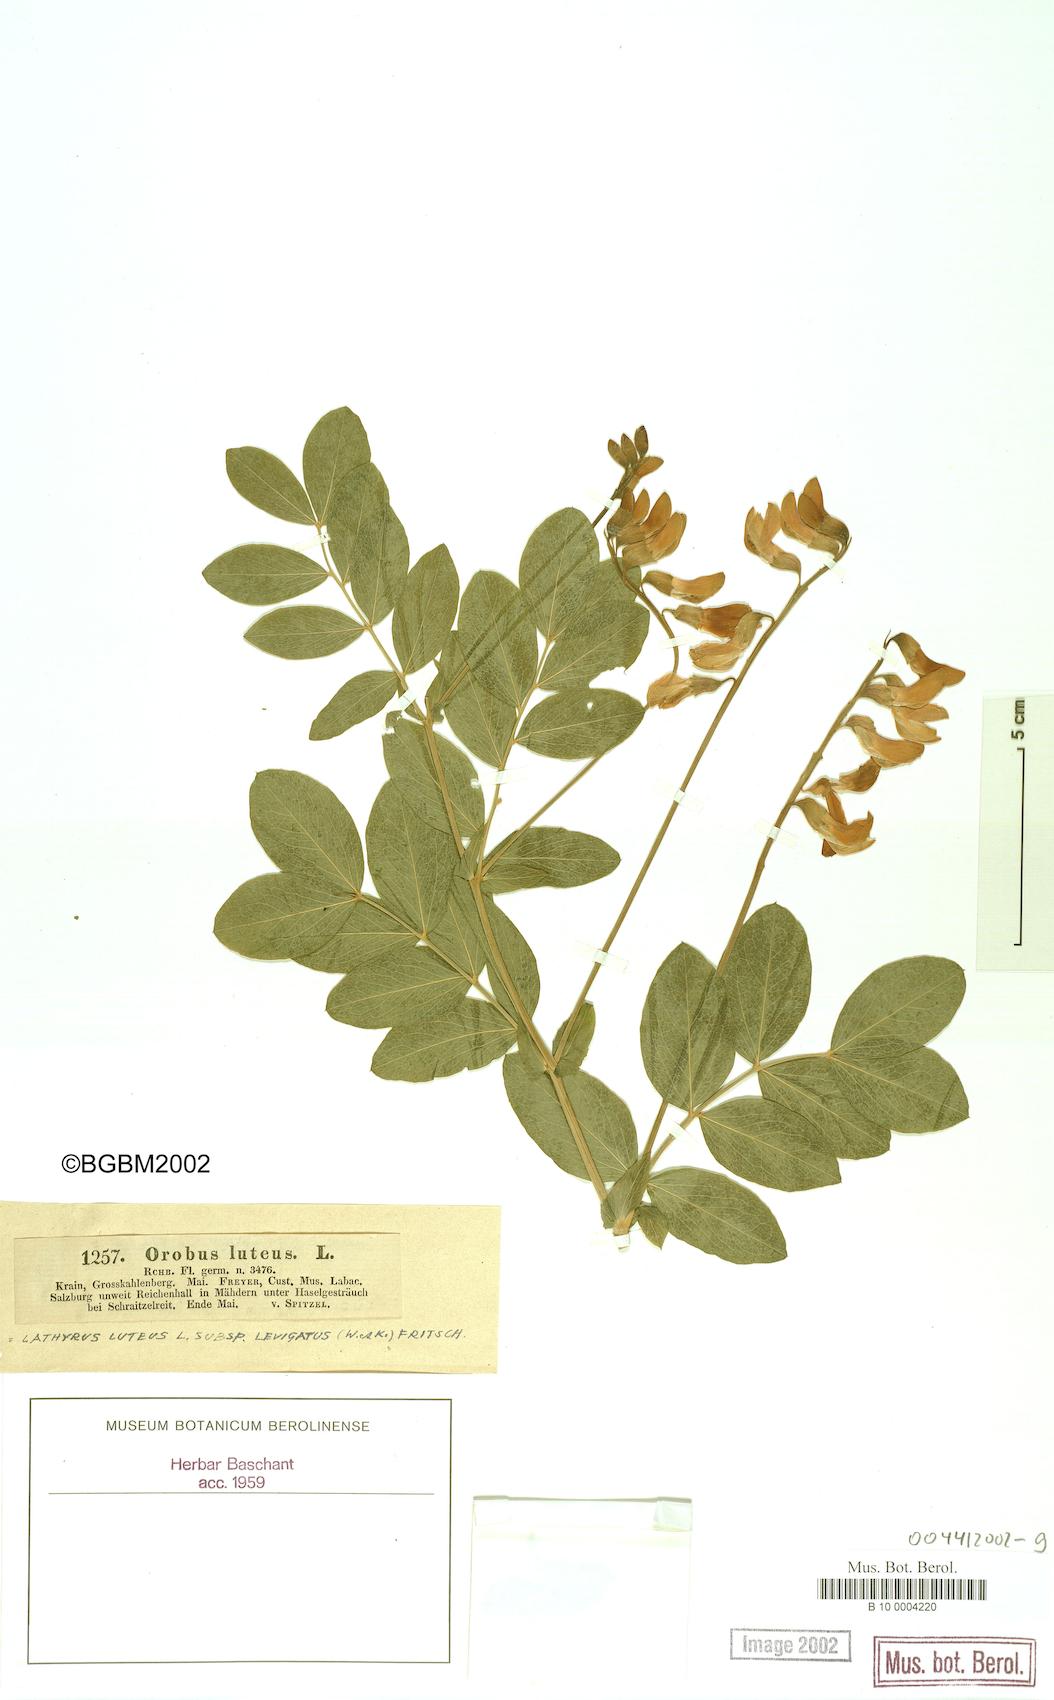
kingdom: Plantae
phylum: Tracheophyta
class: Magnoliopsida
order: Fabales
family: Fabaceae
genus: Lathyrus
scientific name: Lathyrus gmelinii
